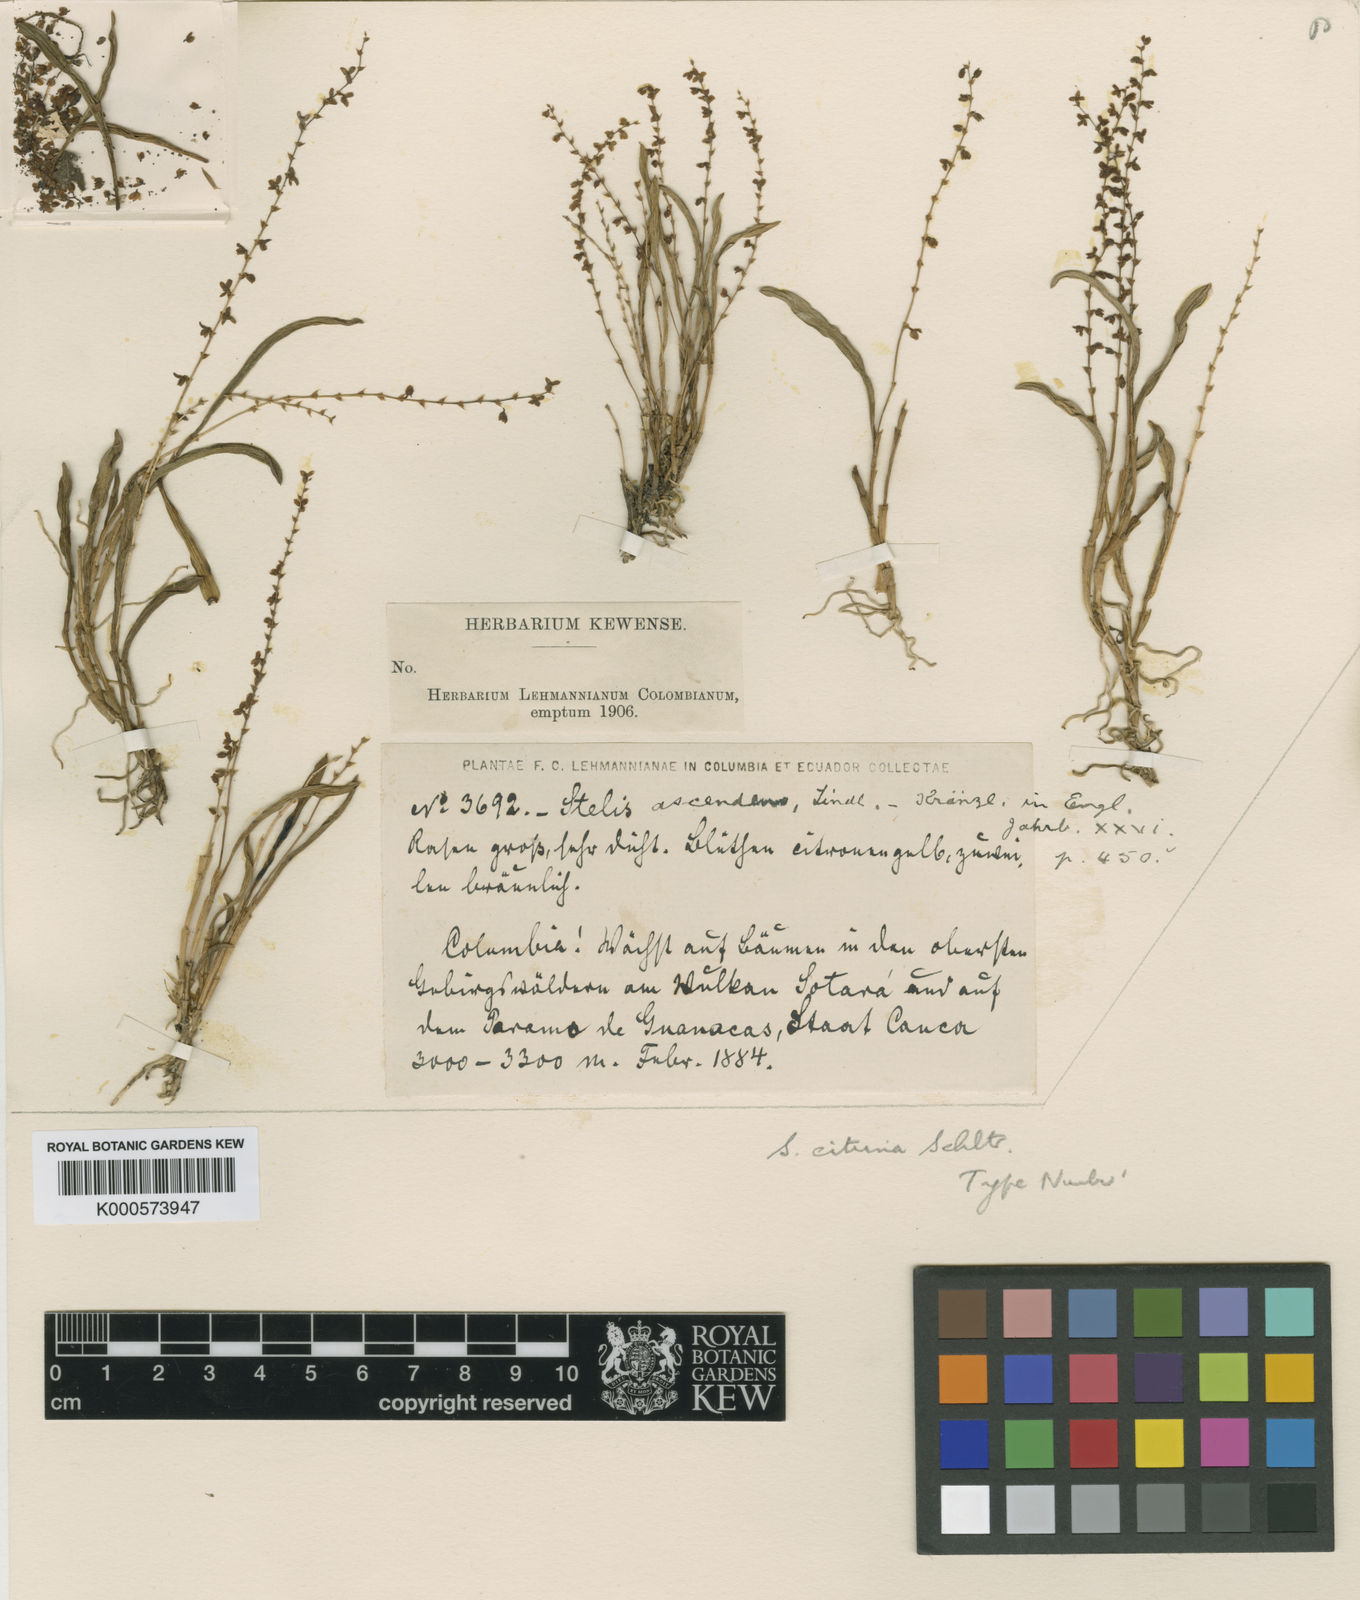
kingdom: Plantae
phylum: Tracheophyta
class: Liliopsida
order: Asparagales
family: Orchidaceae
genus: Stelis
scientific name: Stelis pusilla
